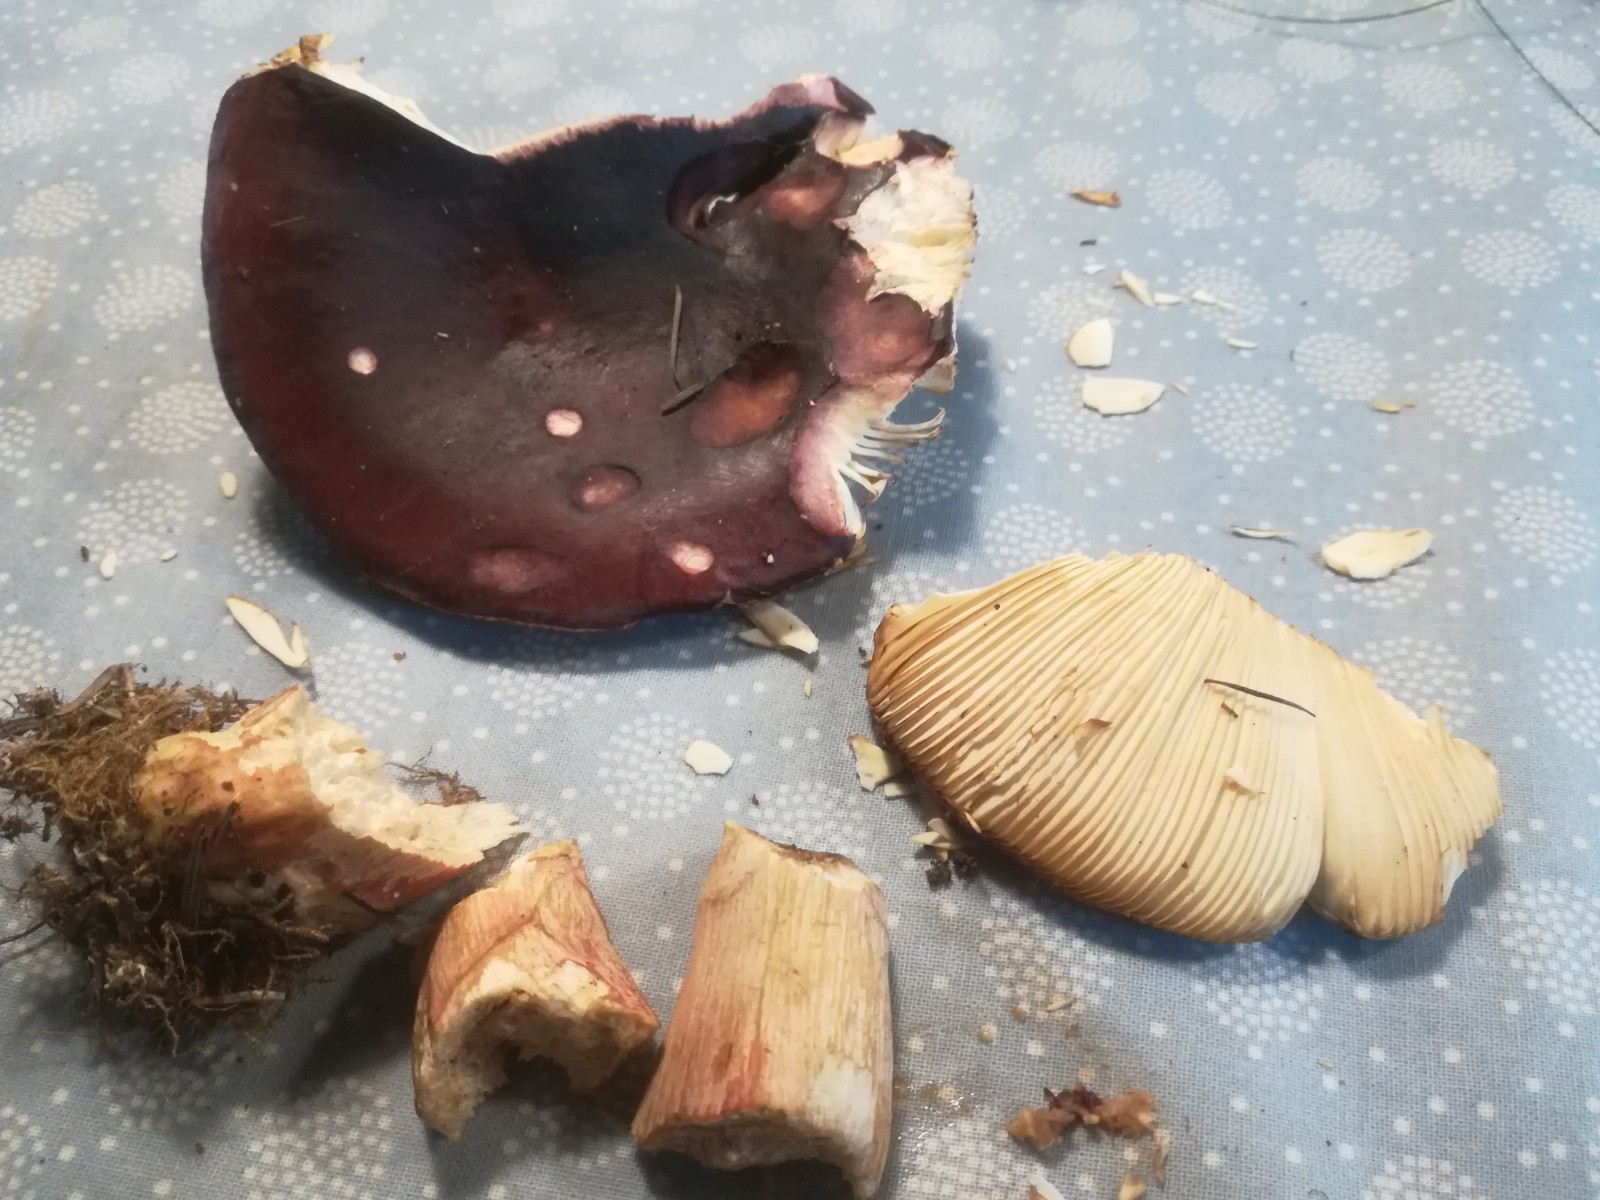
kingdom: Fungi
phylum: Basidiomycota
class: Agaricomycetes
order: Russulales
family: Russulaceae
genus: Russula
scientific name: Russula xerampelina
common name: hummer-skørhat
